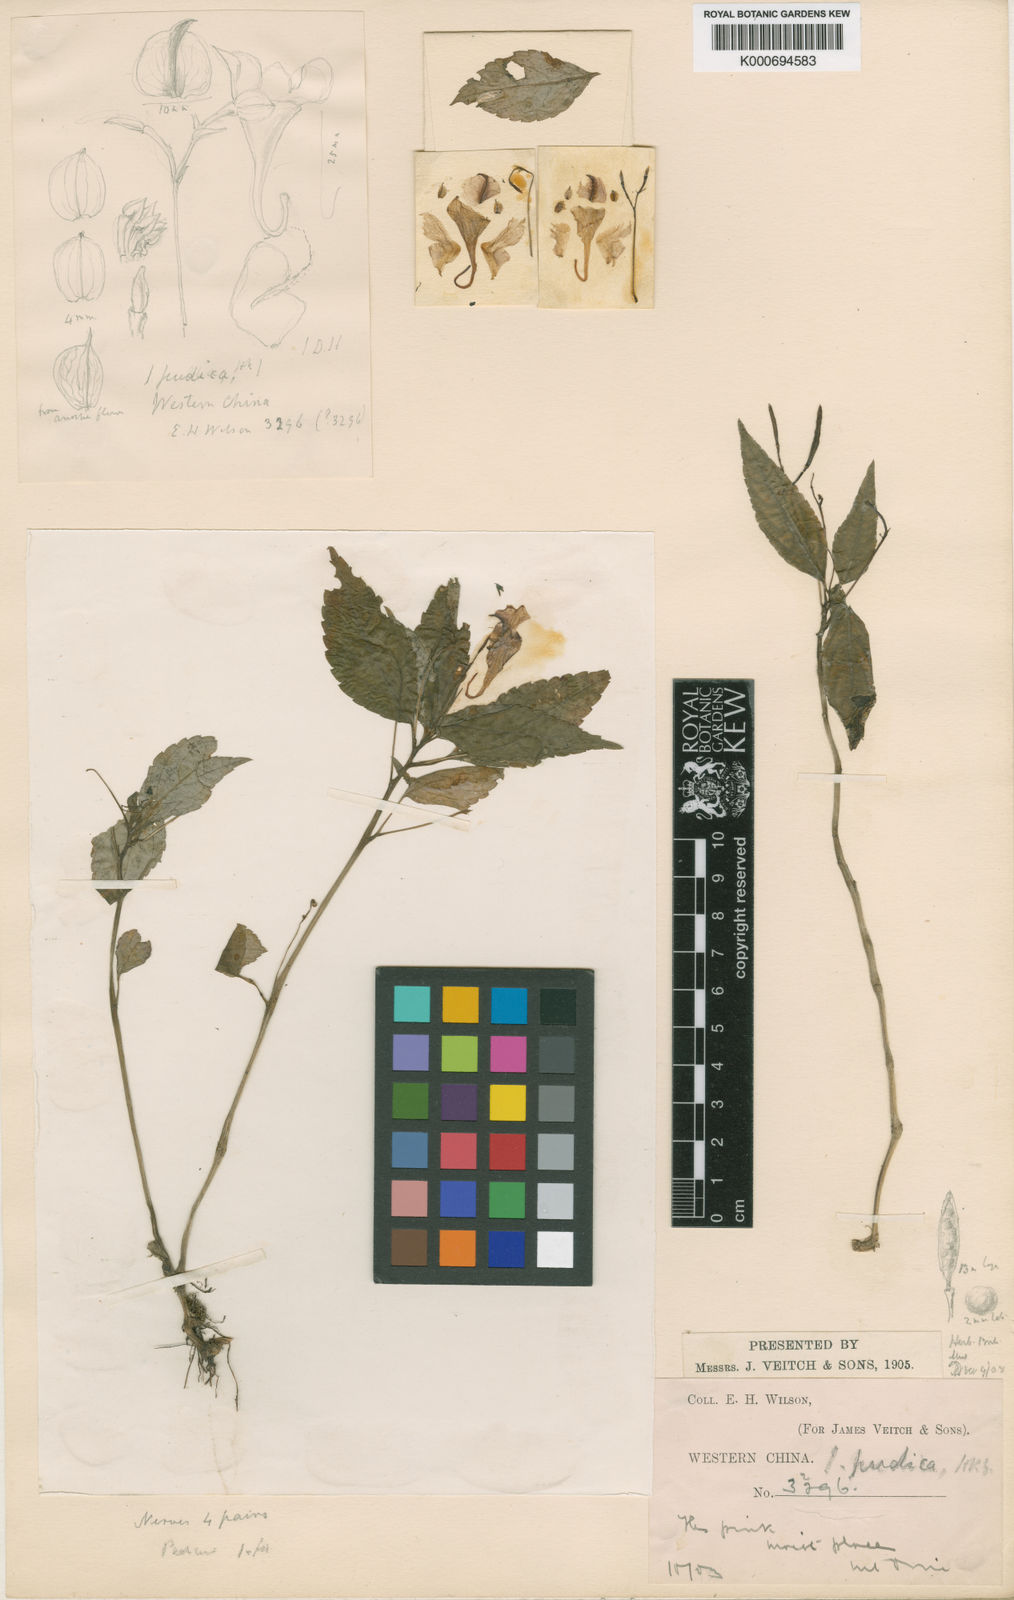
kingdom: Plantae
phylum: Tracheophyta
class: Magnoliopsida
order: Ericales
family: Balsaminaceae
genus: Impatiens
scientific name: Impatiens pudica
